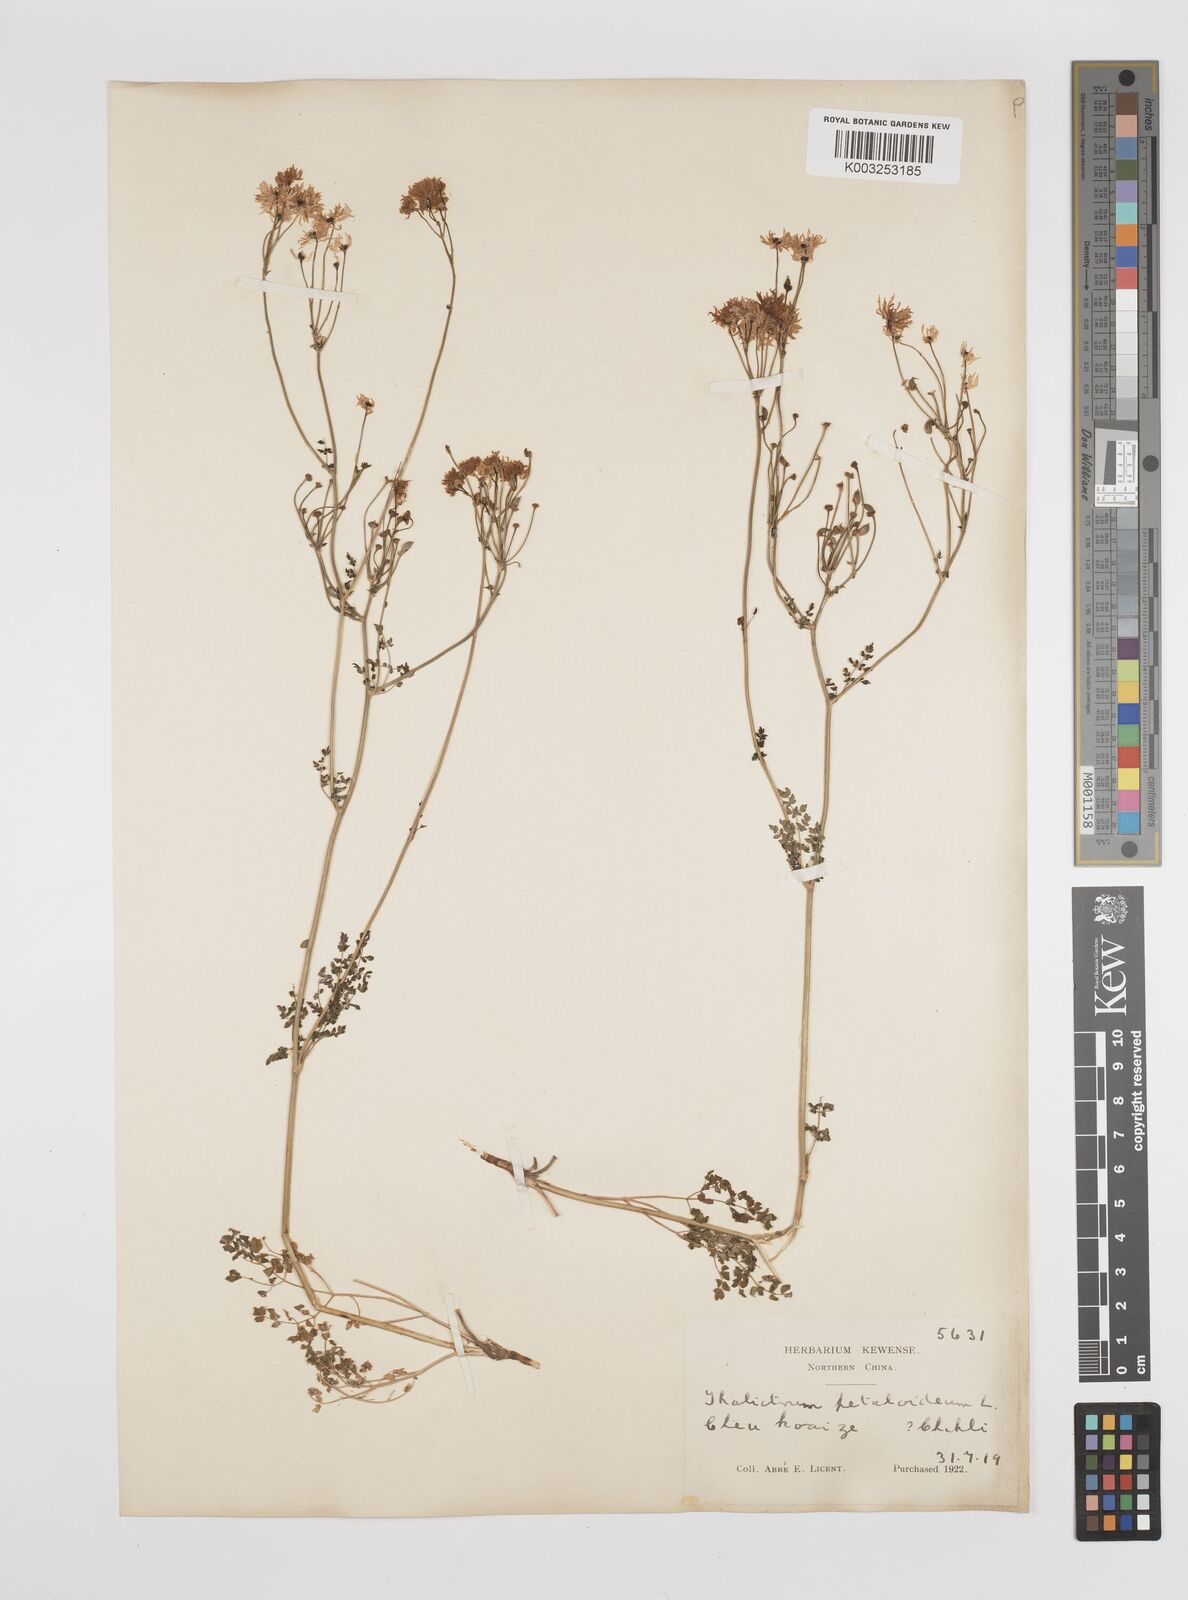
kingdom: Plantae
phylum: Tracheophyta
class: Magnoliopsida
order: Ranunculales
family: Ranunculaceae
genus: Thalictrum
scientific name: Thalictrum petaloideum
